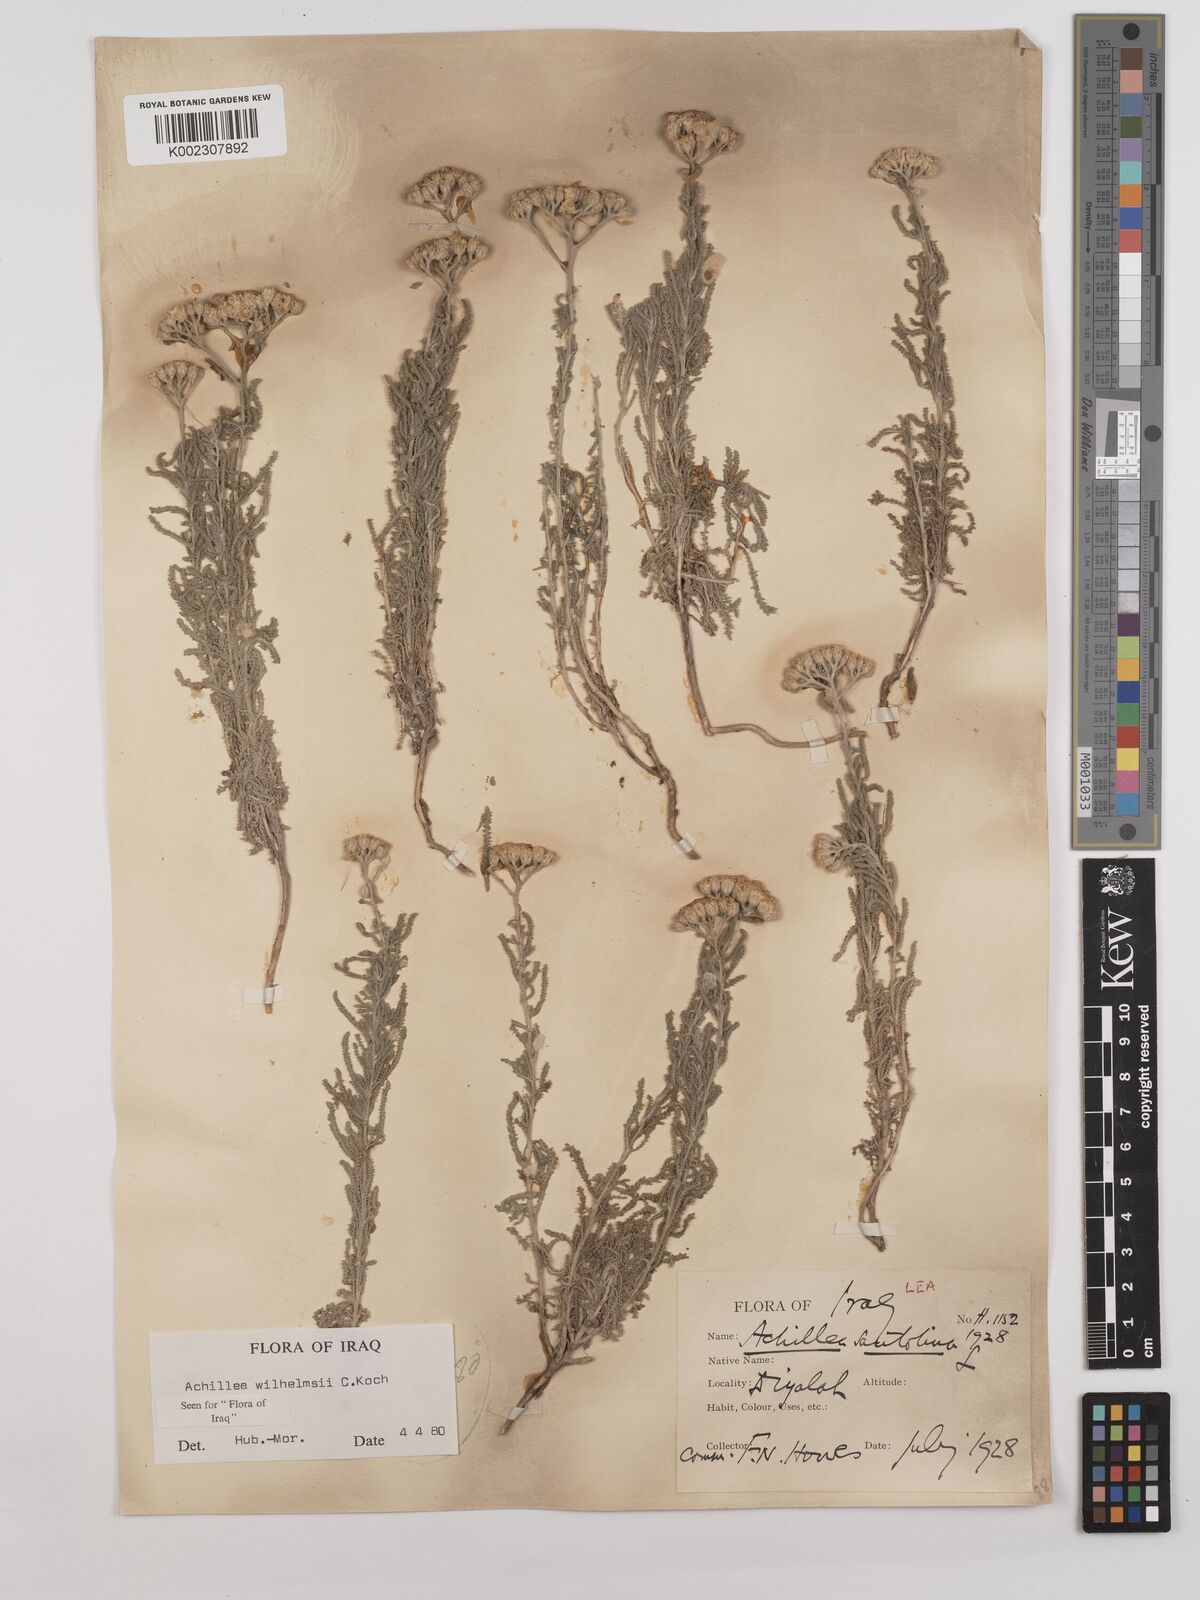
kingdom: Plantae
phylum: Tracheophyta
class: Magnoliopsida
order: Asterales
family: Asteraceae
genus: Achillea
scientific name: Achillea wilhelmsii
